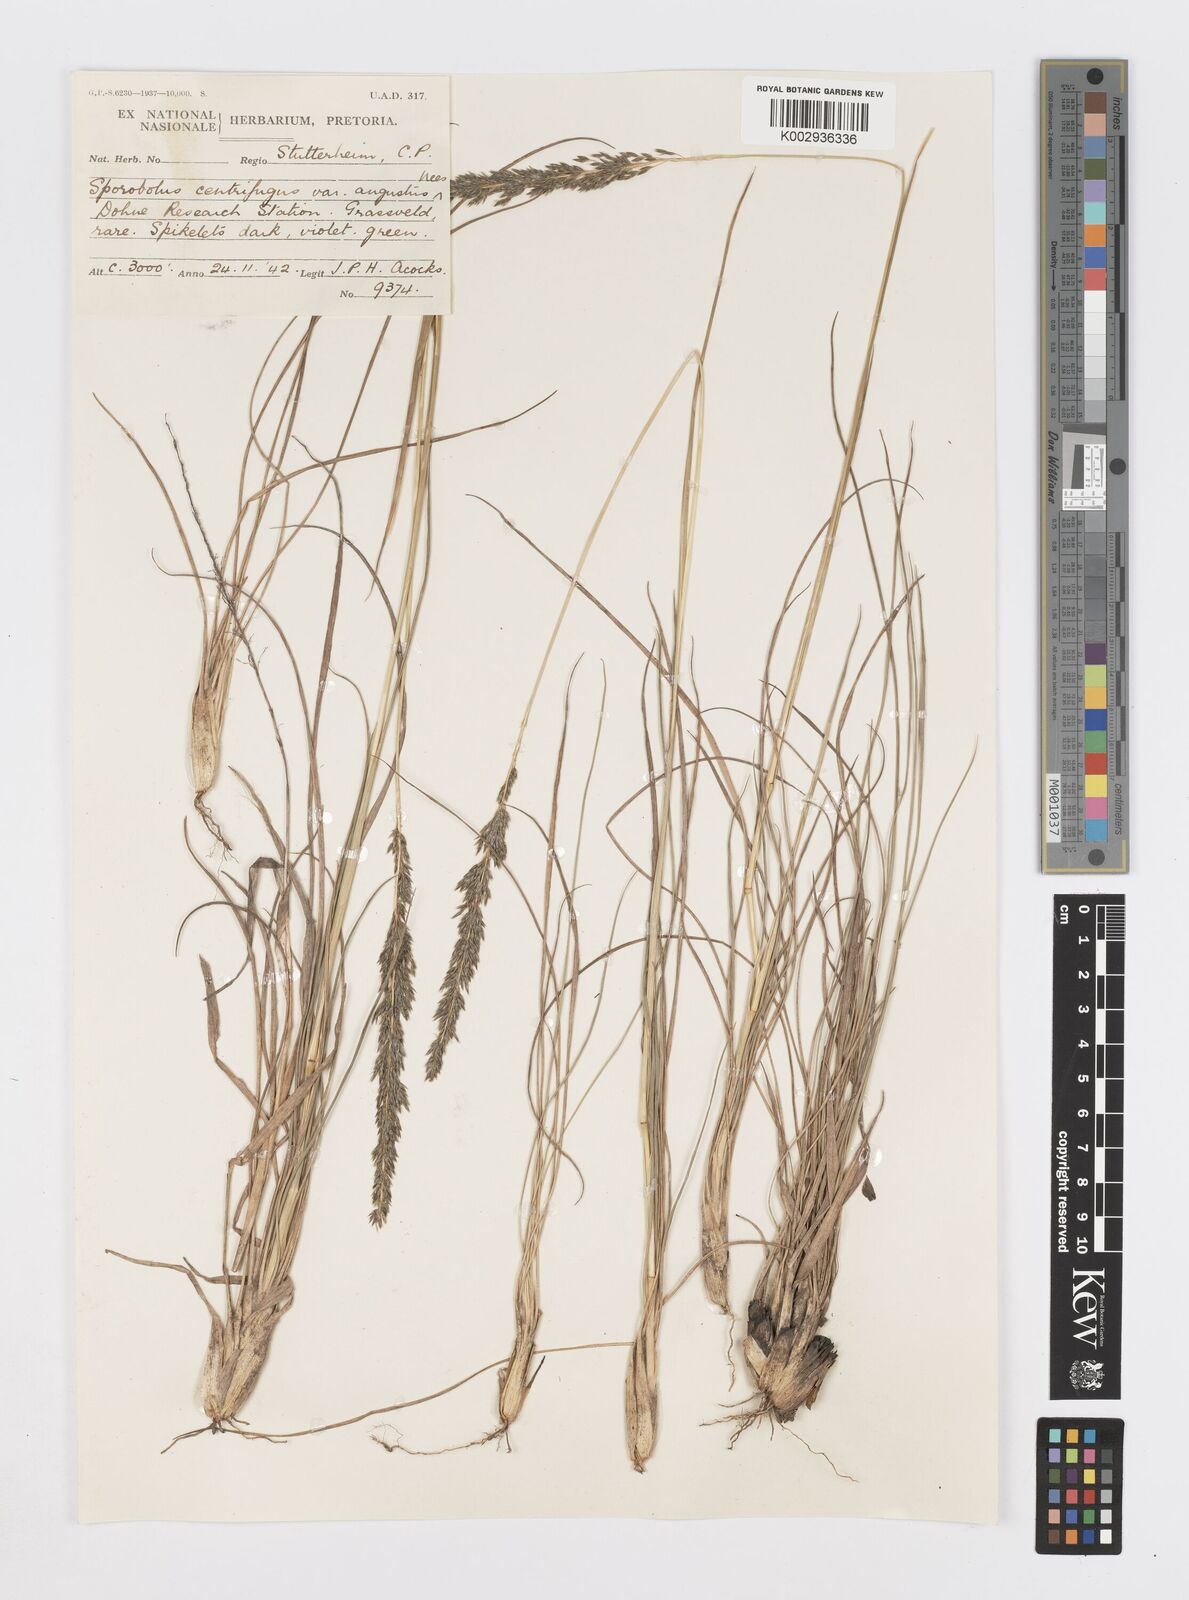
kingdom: Plantae
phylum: Tracheophyta
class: Liliopsida
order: Poales
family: Poaceae
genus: Sporobolus
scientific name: Sporobolus centrifugus
